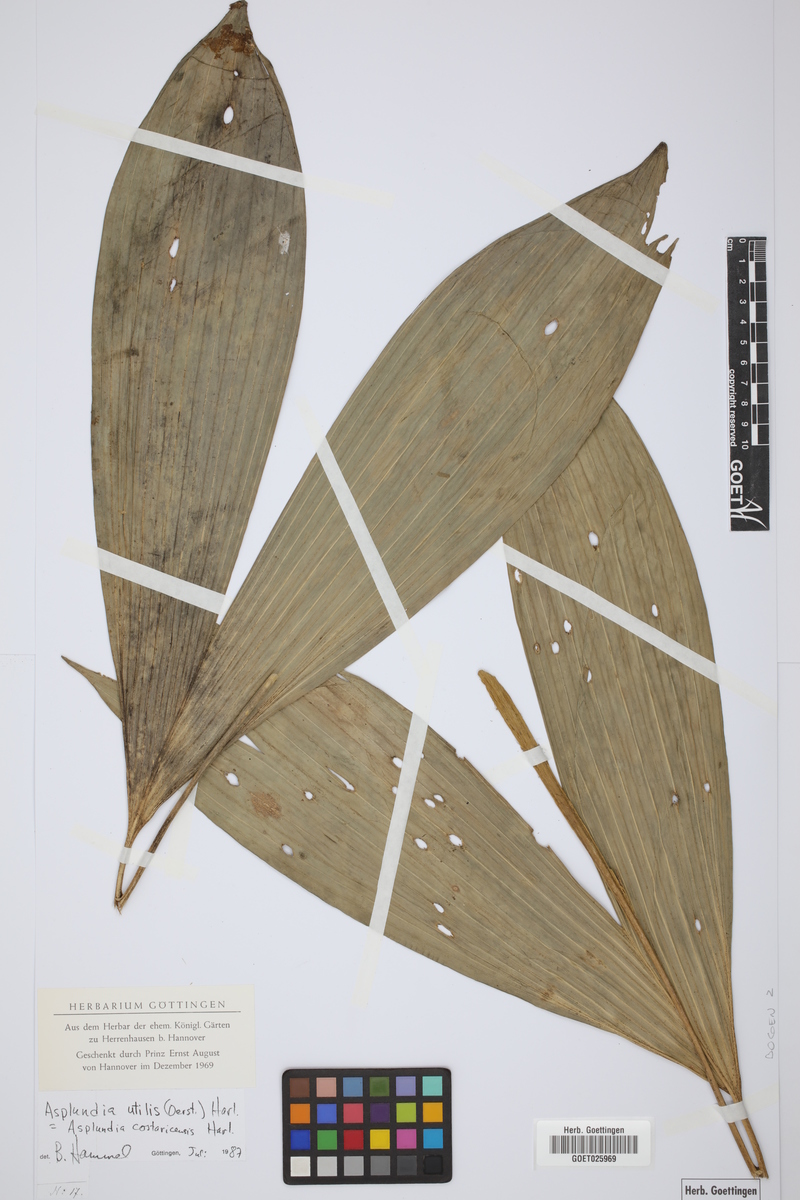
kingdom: Plantae
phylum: Tracheophyta
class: Liliopsida
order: Pandanales
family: Cyclanthaceae
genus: Asplundia
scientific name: Asplundia utilis
